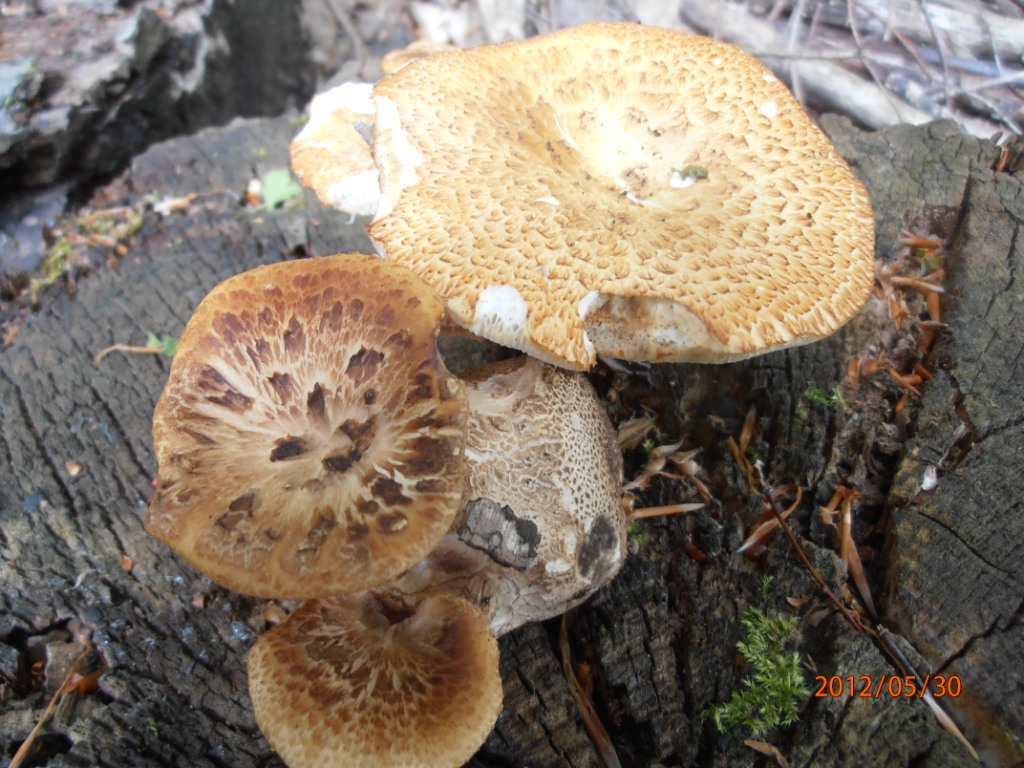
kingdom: Fungi
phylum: Basidiomycota
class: Agaricomycetes
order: Polyporales
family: Polyporaceae
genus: Polyporus
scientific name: Polyporus tuberaster
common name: knoldet stilkporesvamp
